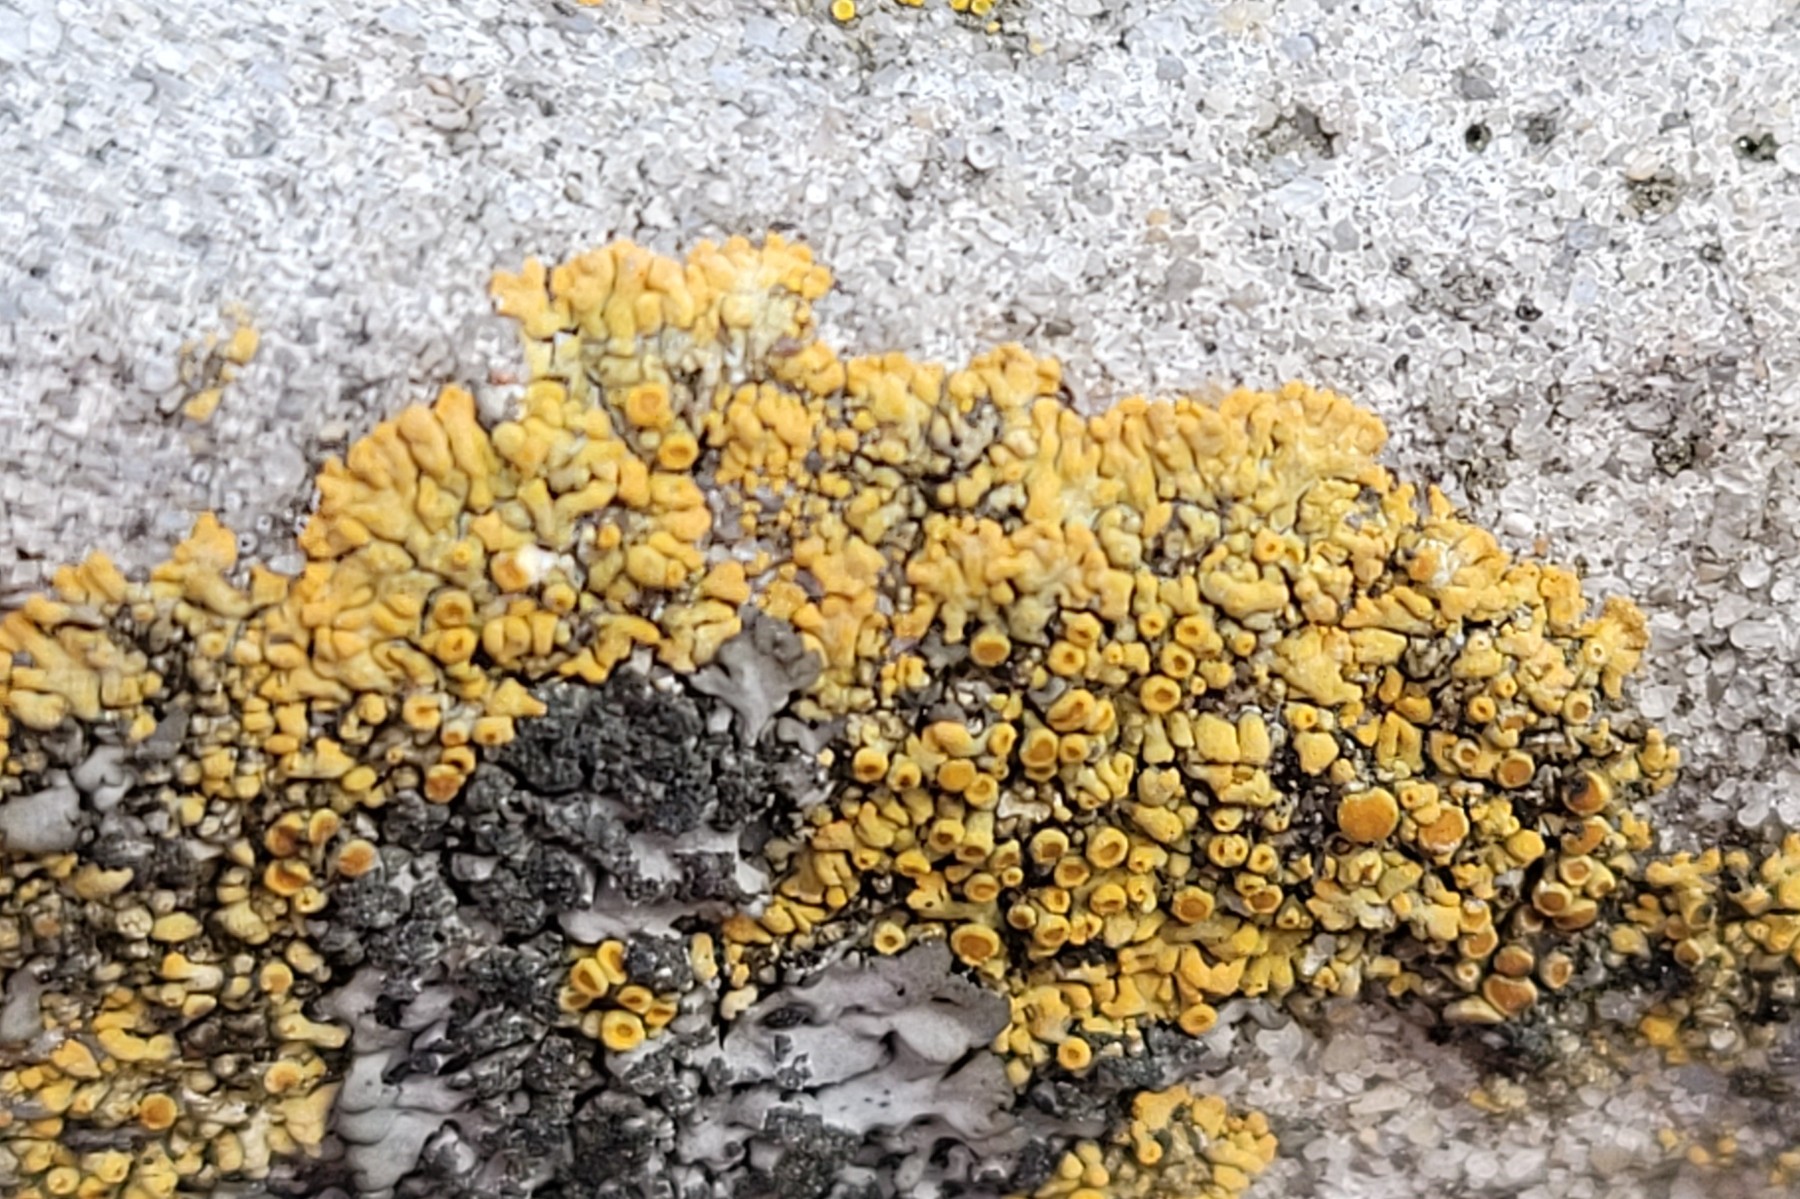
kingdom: Fungi
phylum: Ascomycota
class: Lecanoromycetes
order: Teloschistales
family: Teloschistaceae
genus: Calogaya
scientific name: Calogaya arnoldii
